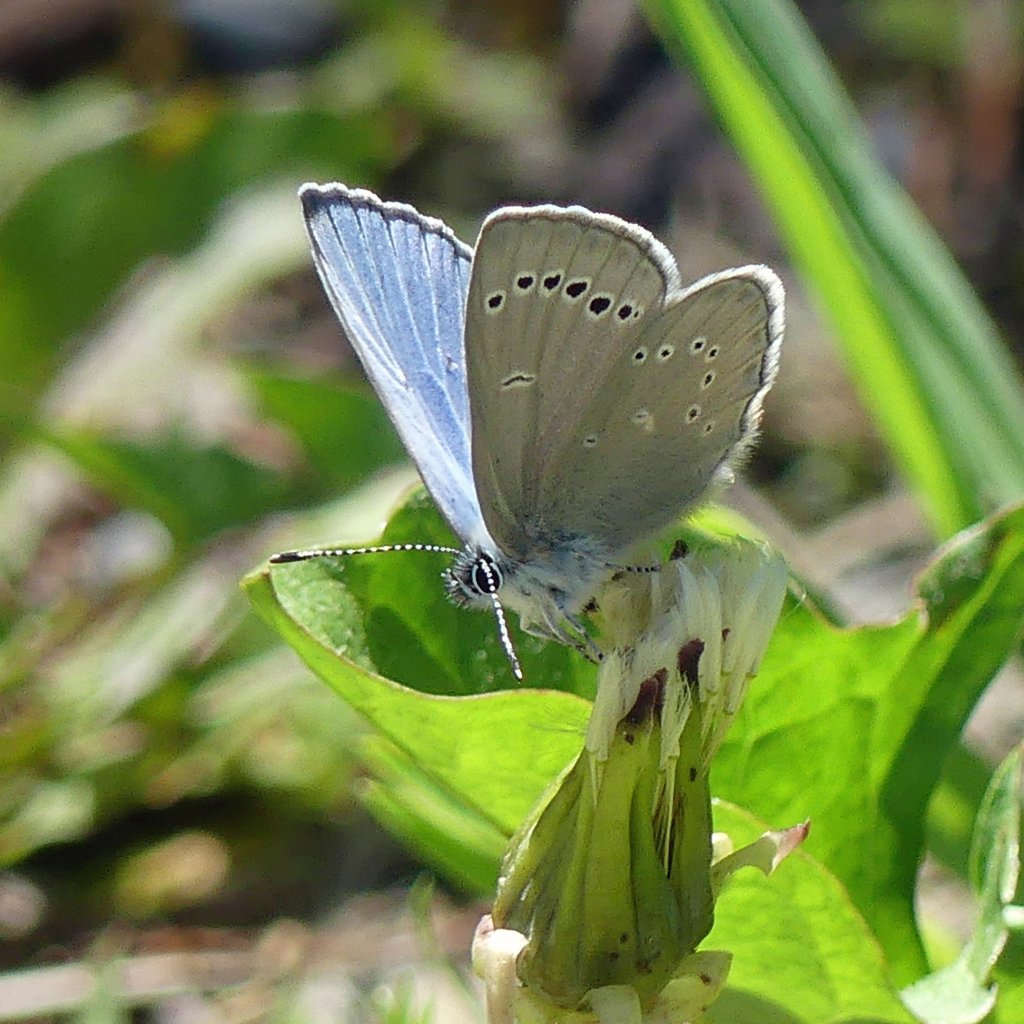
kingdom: Animalia
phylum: Arthropoda
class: Insecta
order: Lepidoptera
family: Lycaenidae
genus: Glaucopsyche
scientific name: Glaucopsyche lygdamus
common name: Silvery Blue
